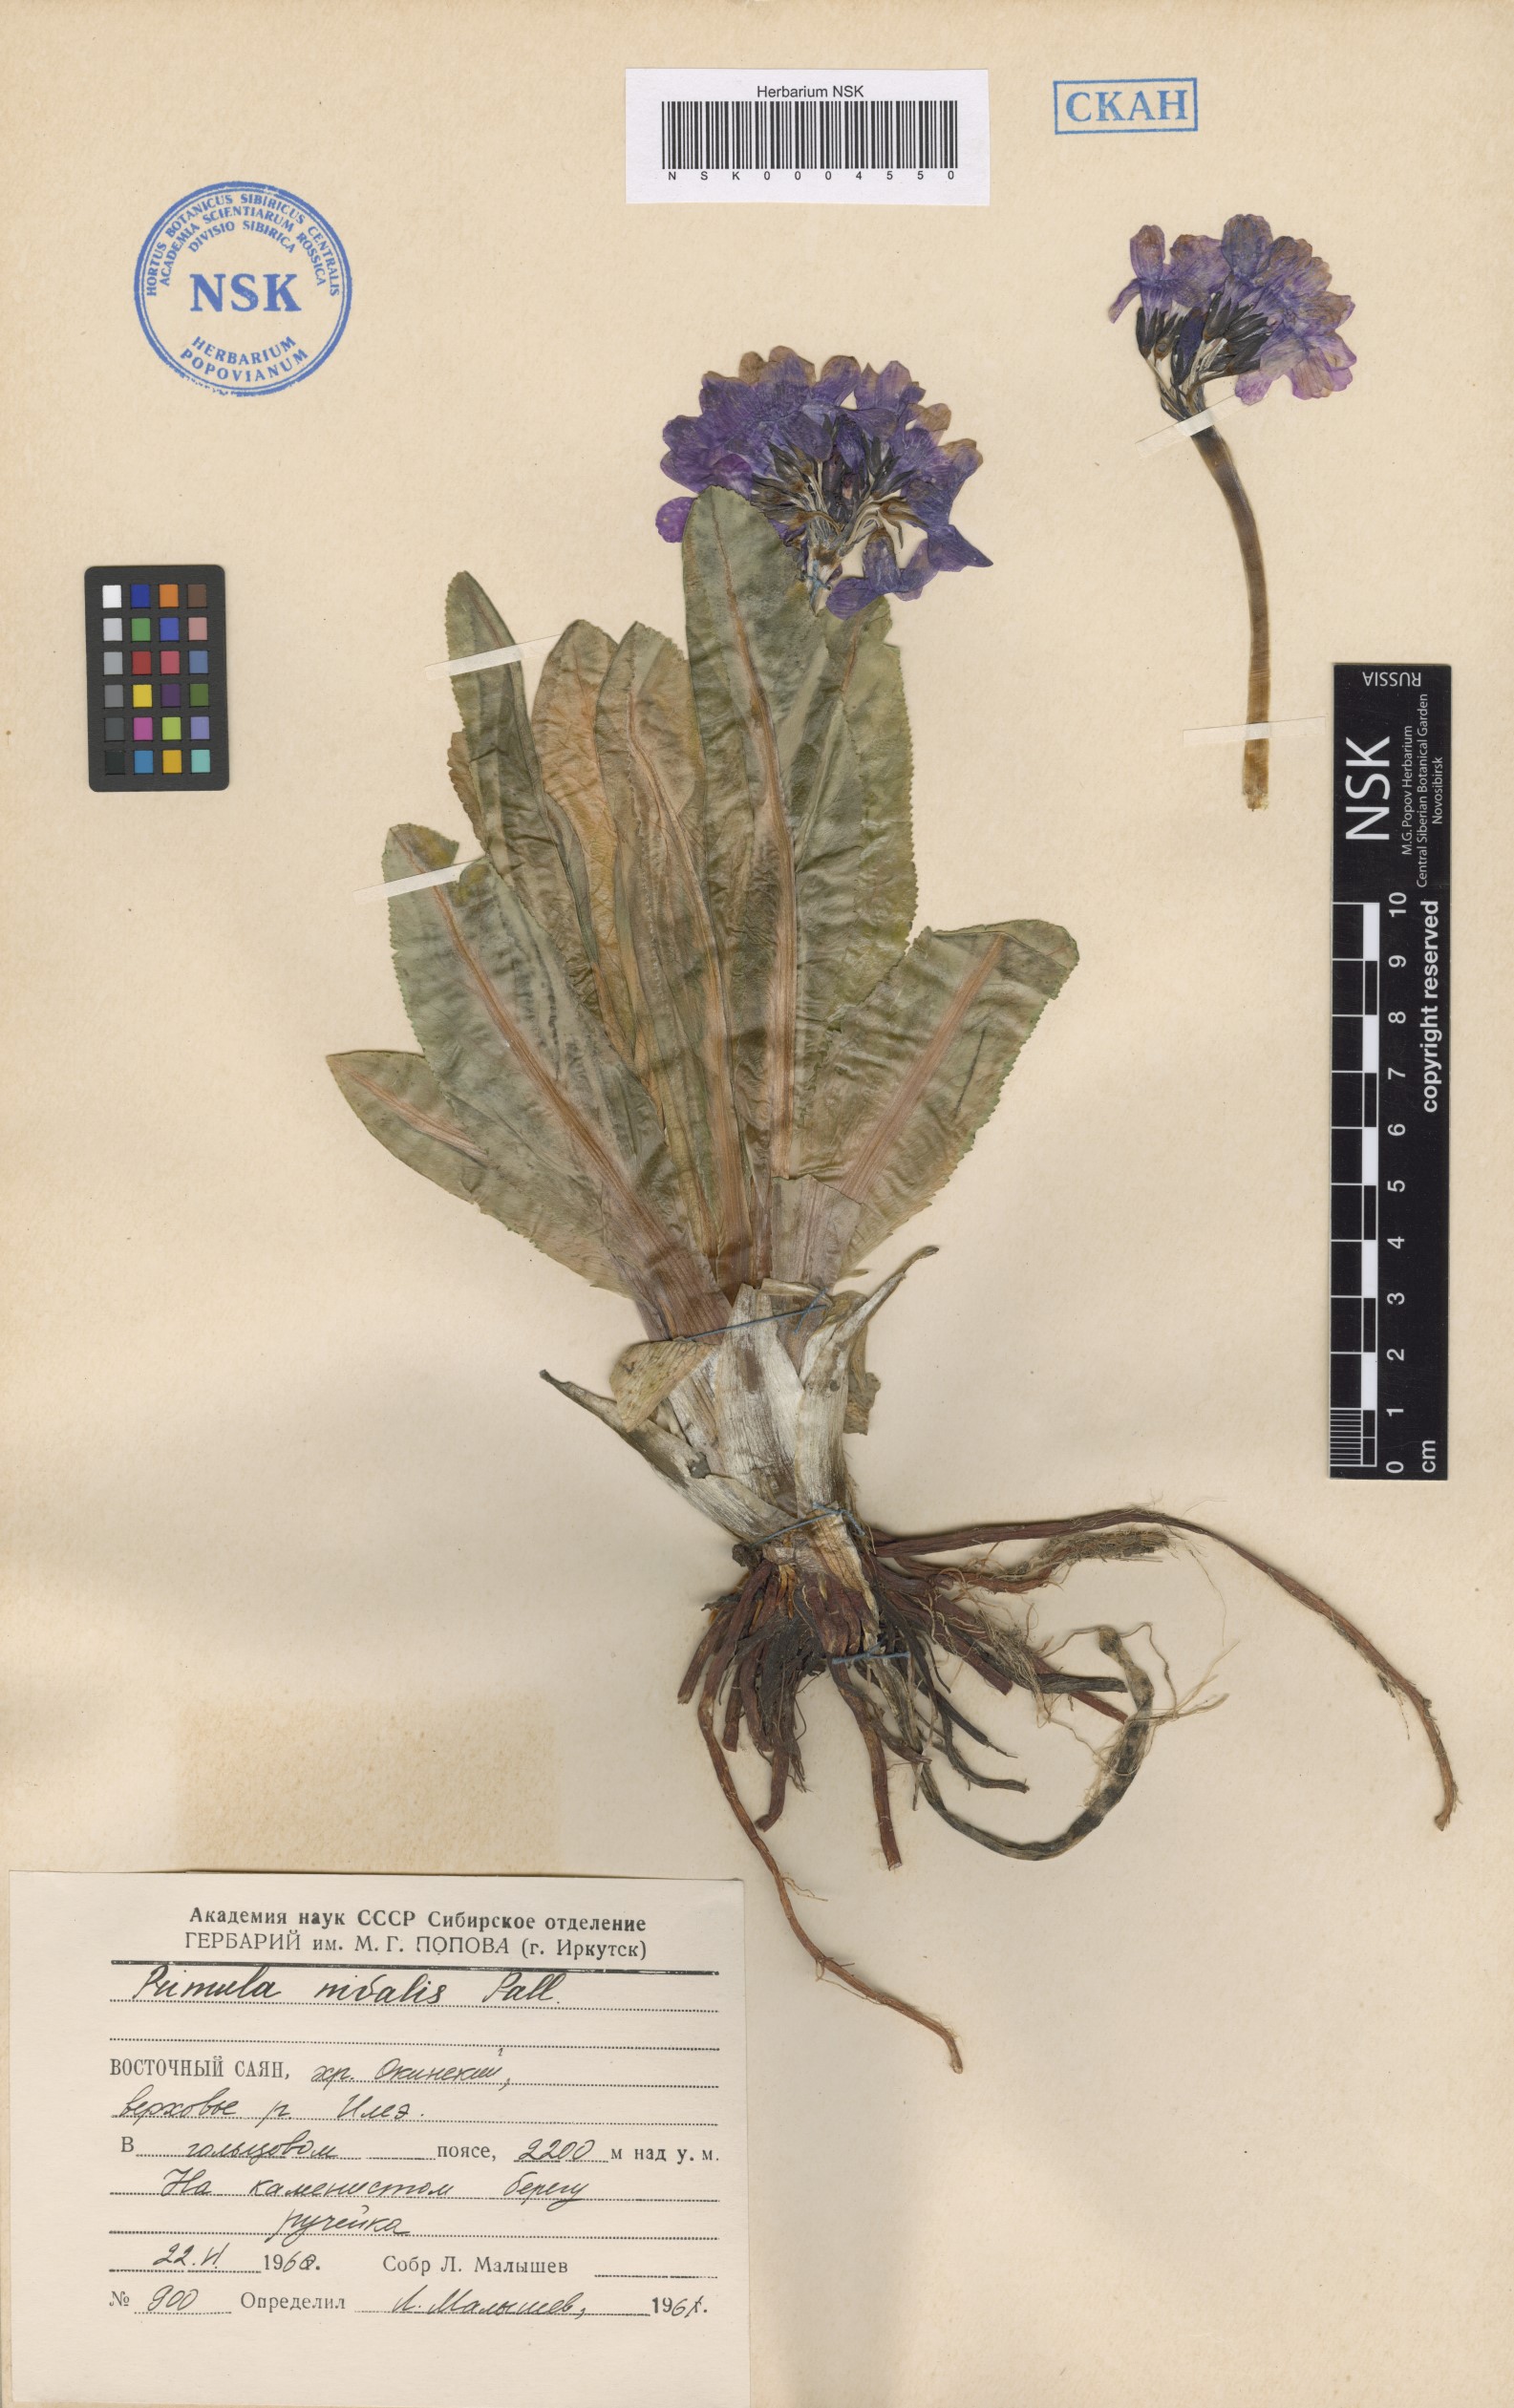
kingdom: Plantae
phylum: Tracheophyta
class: Magnoliopsida
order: Ericales
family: Primulaceae
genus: Primula
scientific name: Primula nivalis
